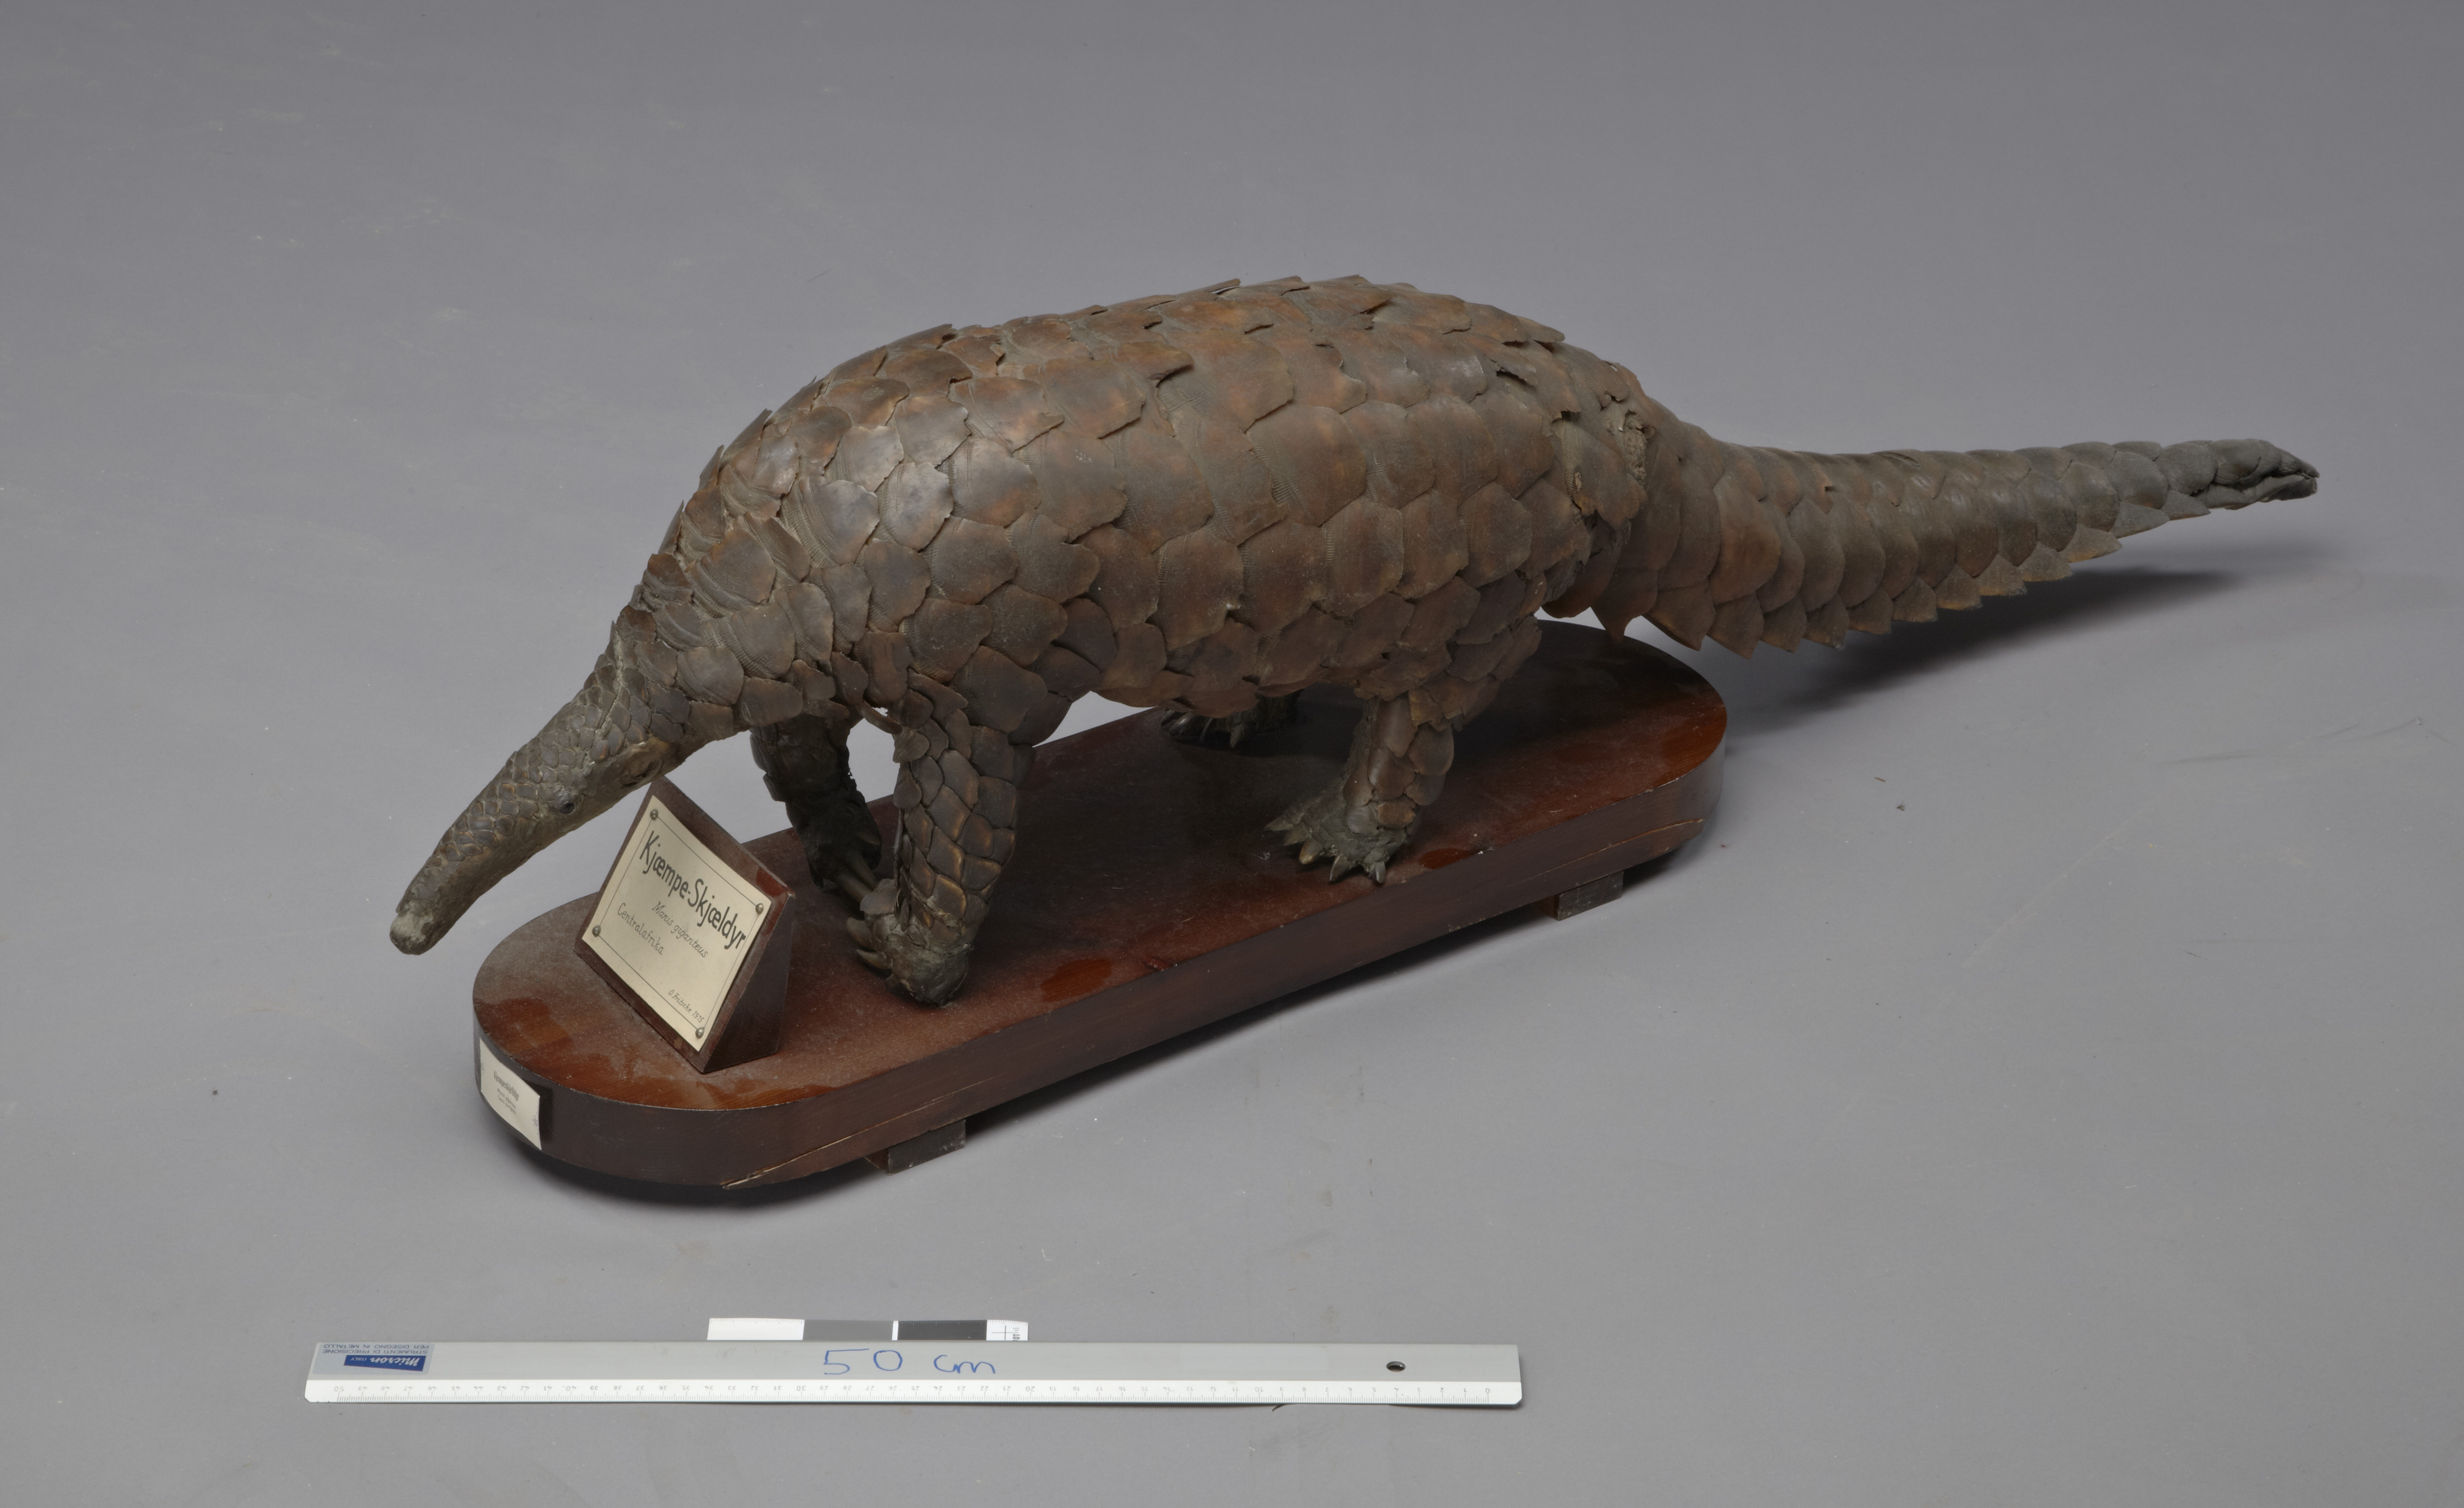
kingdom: Animalia
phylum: Chordata
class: Mammalia
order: Pholidota
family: Manidae
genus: Manis
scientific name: Manis gigantea
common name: Giant pangolin
